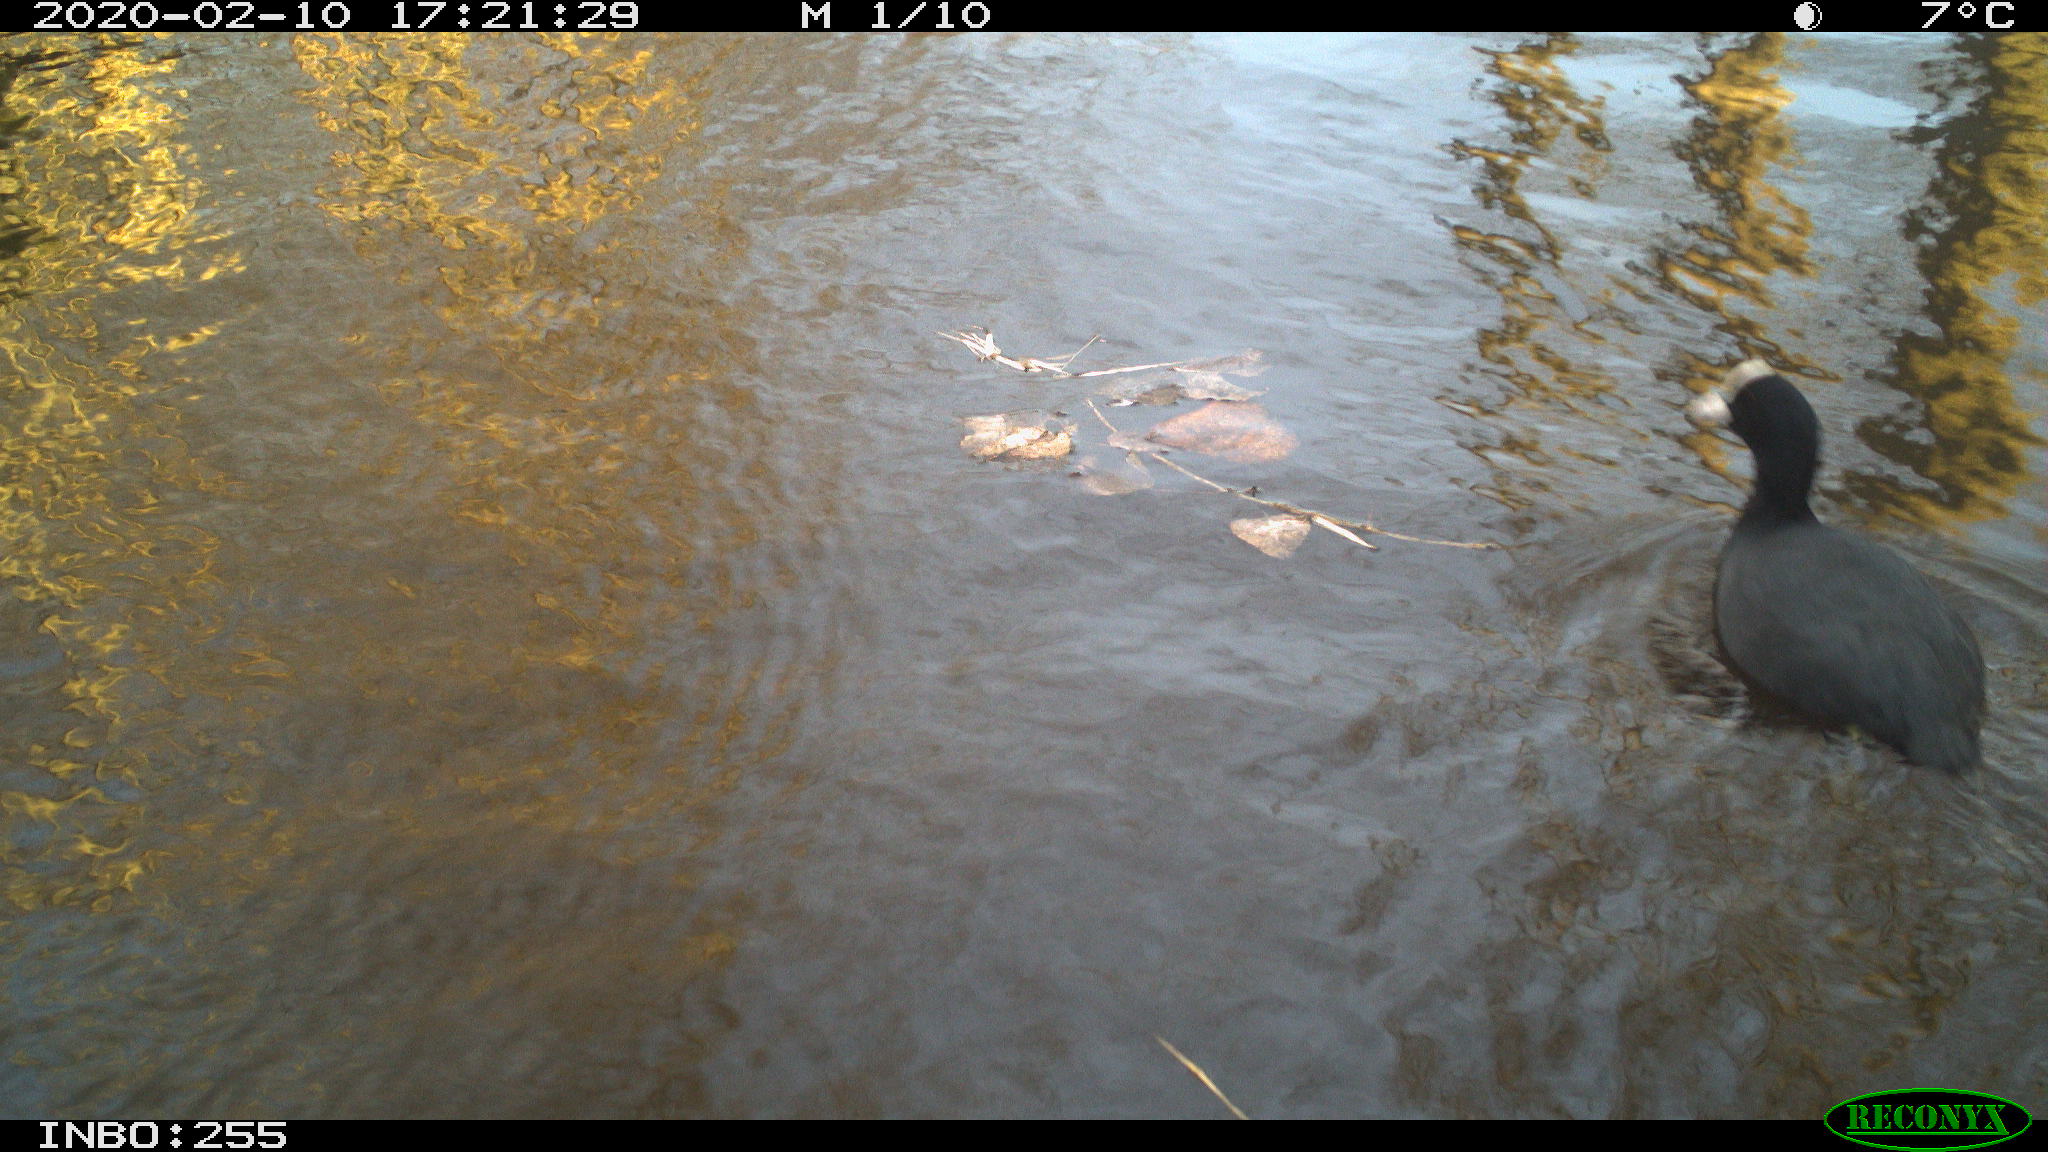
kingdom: Animalia
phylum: Chordata
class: Aves
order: Gruiformes
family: Rallidae
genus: Fulica
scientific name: Fulica atra
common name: Eurasian coot
